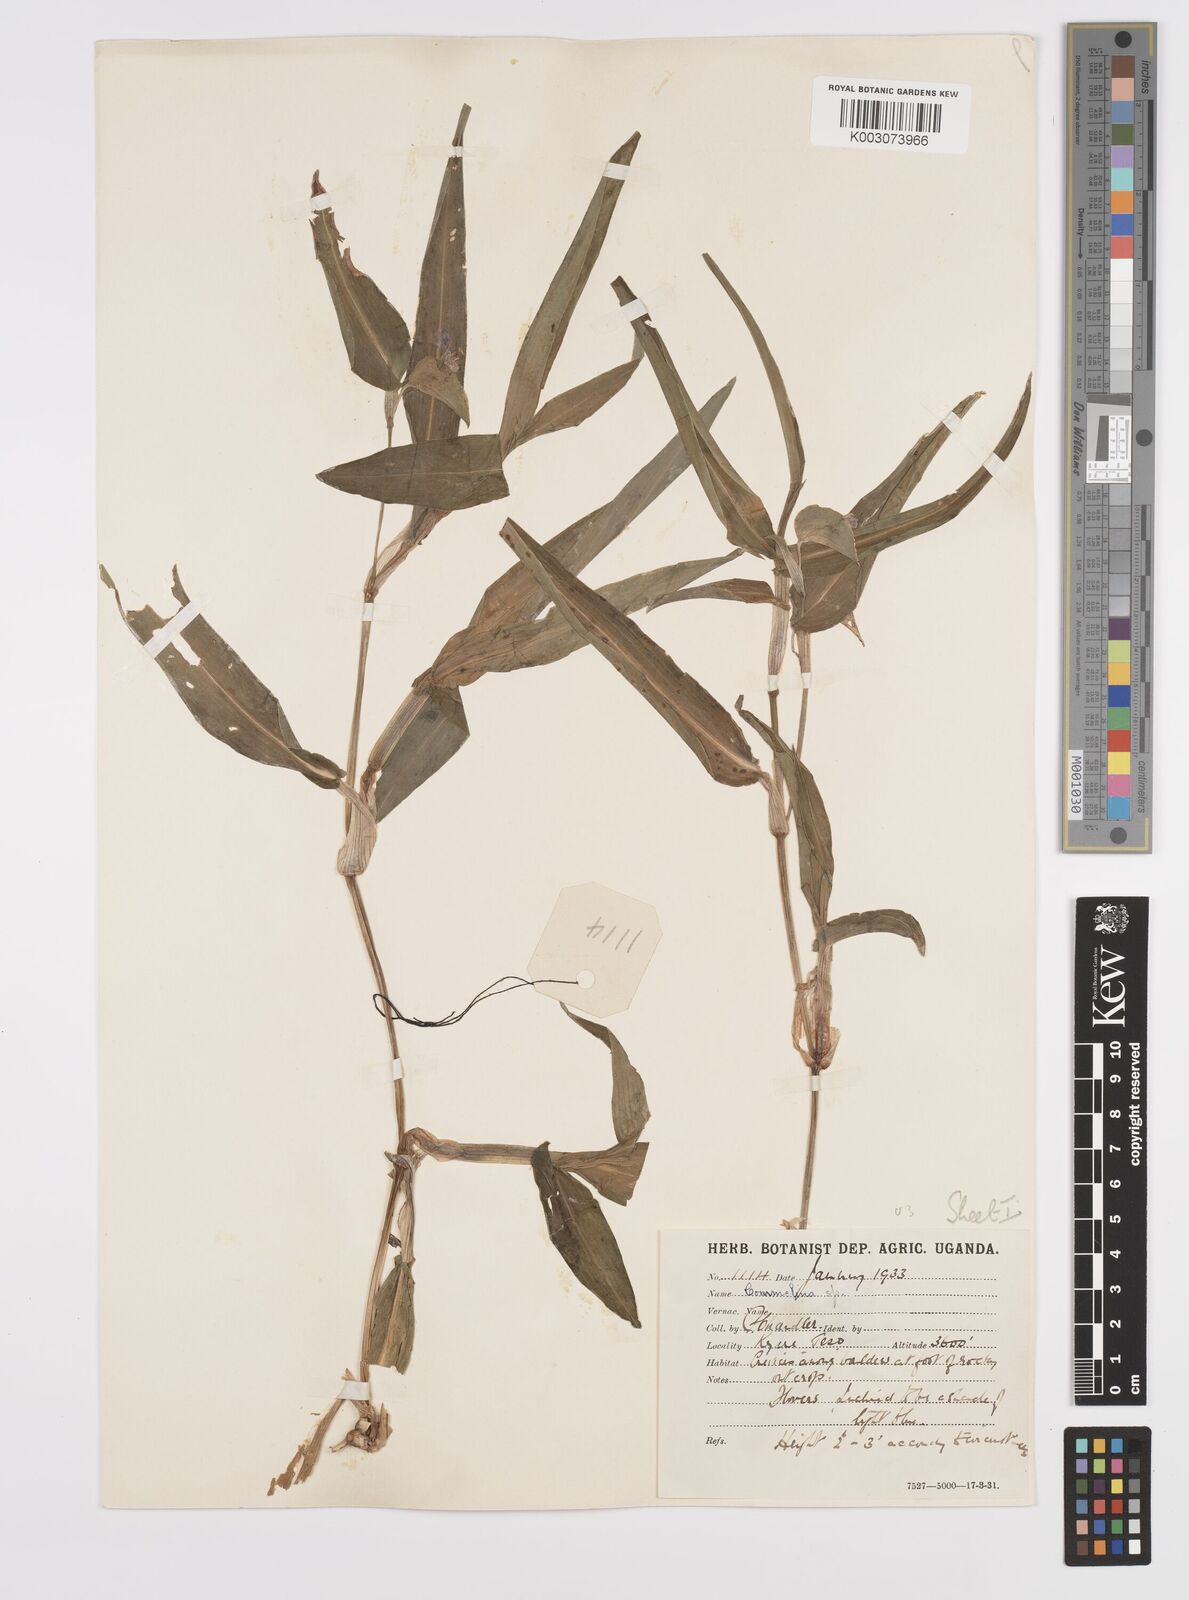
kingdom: Plantae
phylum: Tracheophyta
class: Liliopsida
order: Commelinales
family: Commelinaceae
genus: Commelina
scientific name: Commelina imberbis
